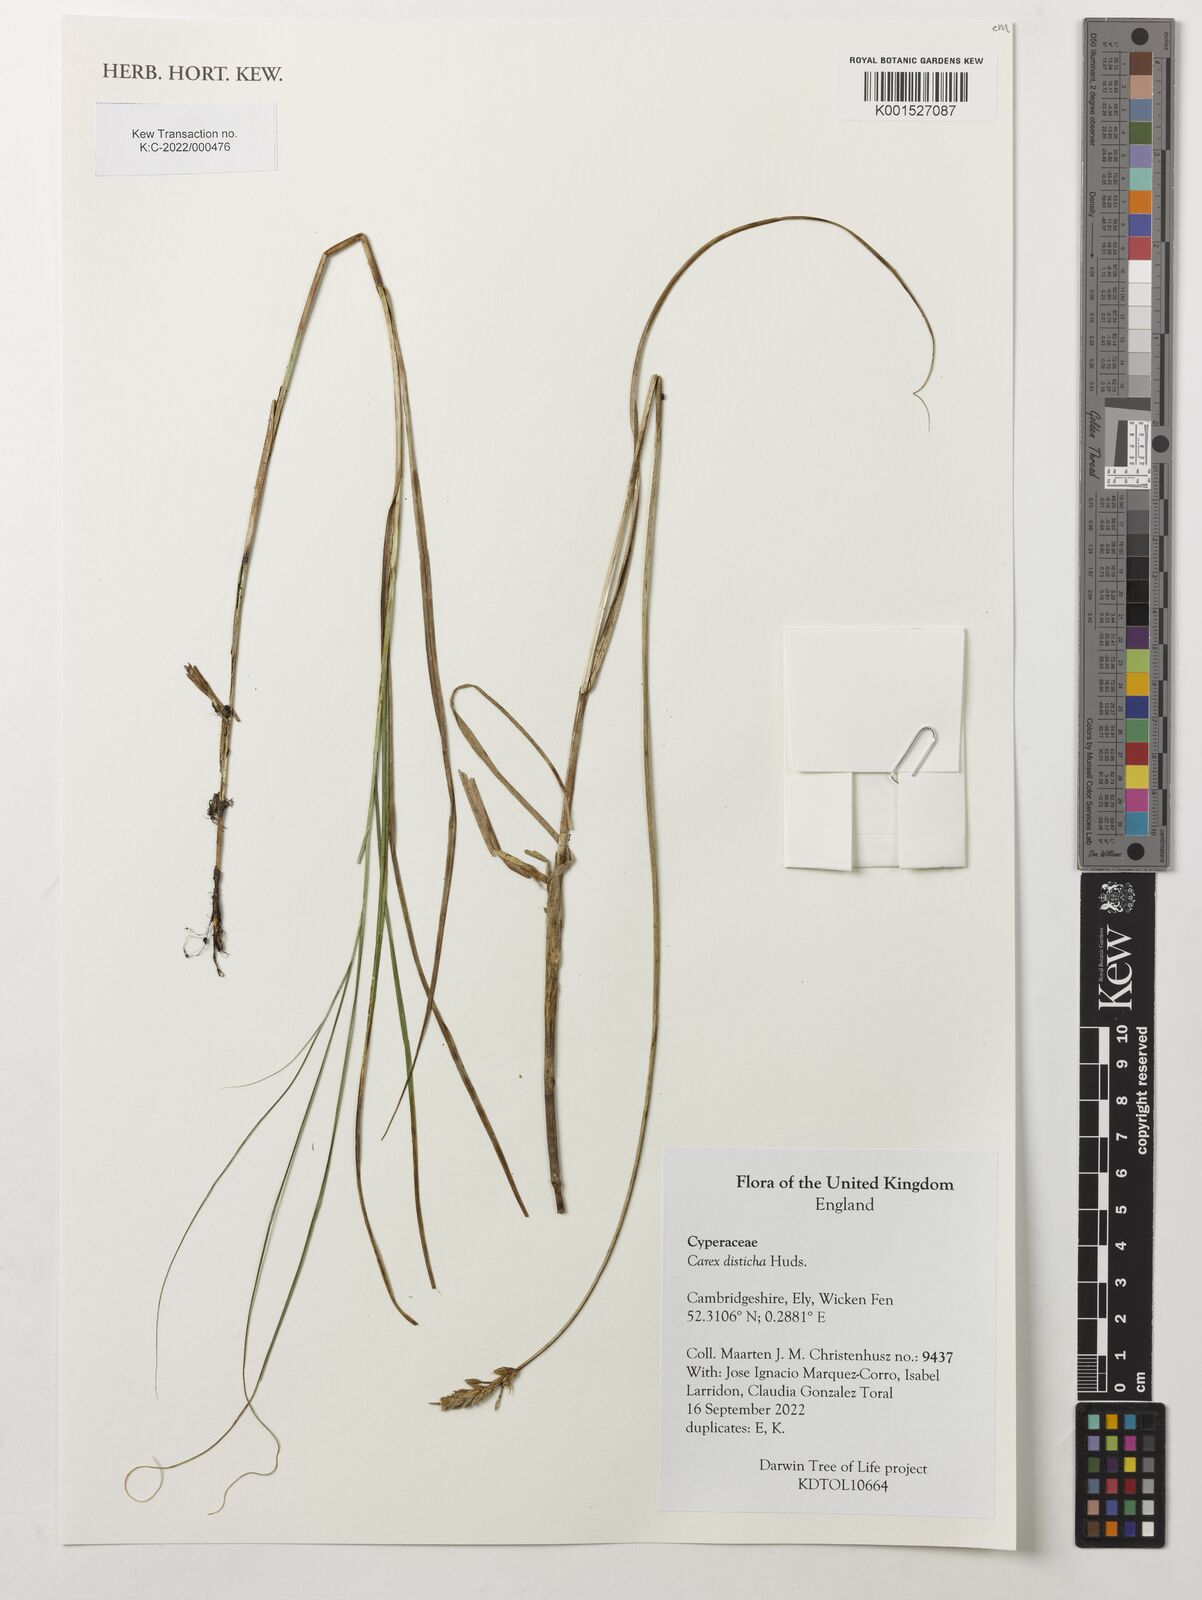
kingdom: Plantae
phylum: Tracheophyta
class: Liliopsida
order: Poales
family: Cyperaceae
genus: Carex
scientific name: Carex disticha
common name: Brown sedge
